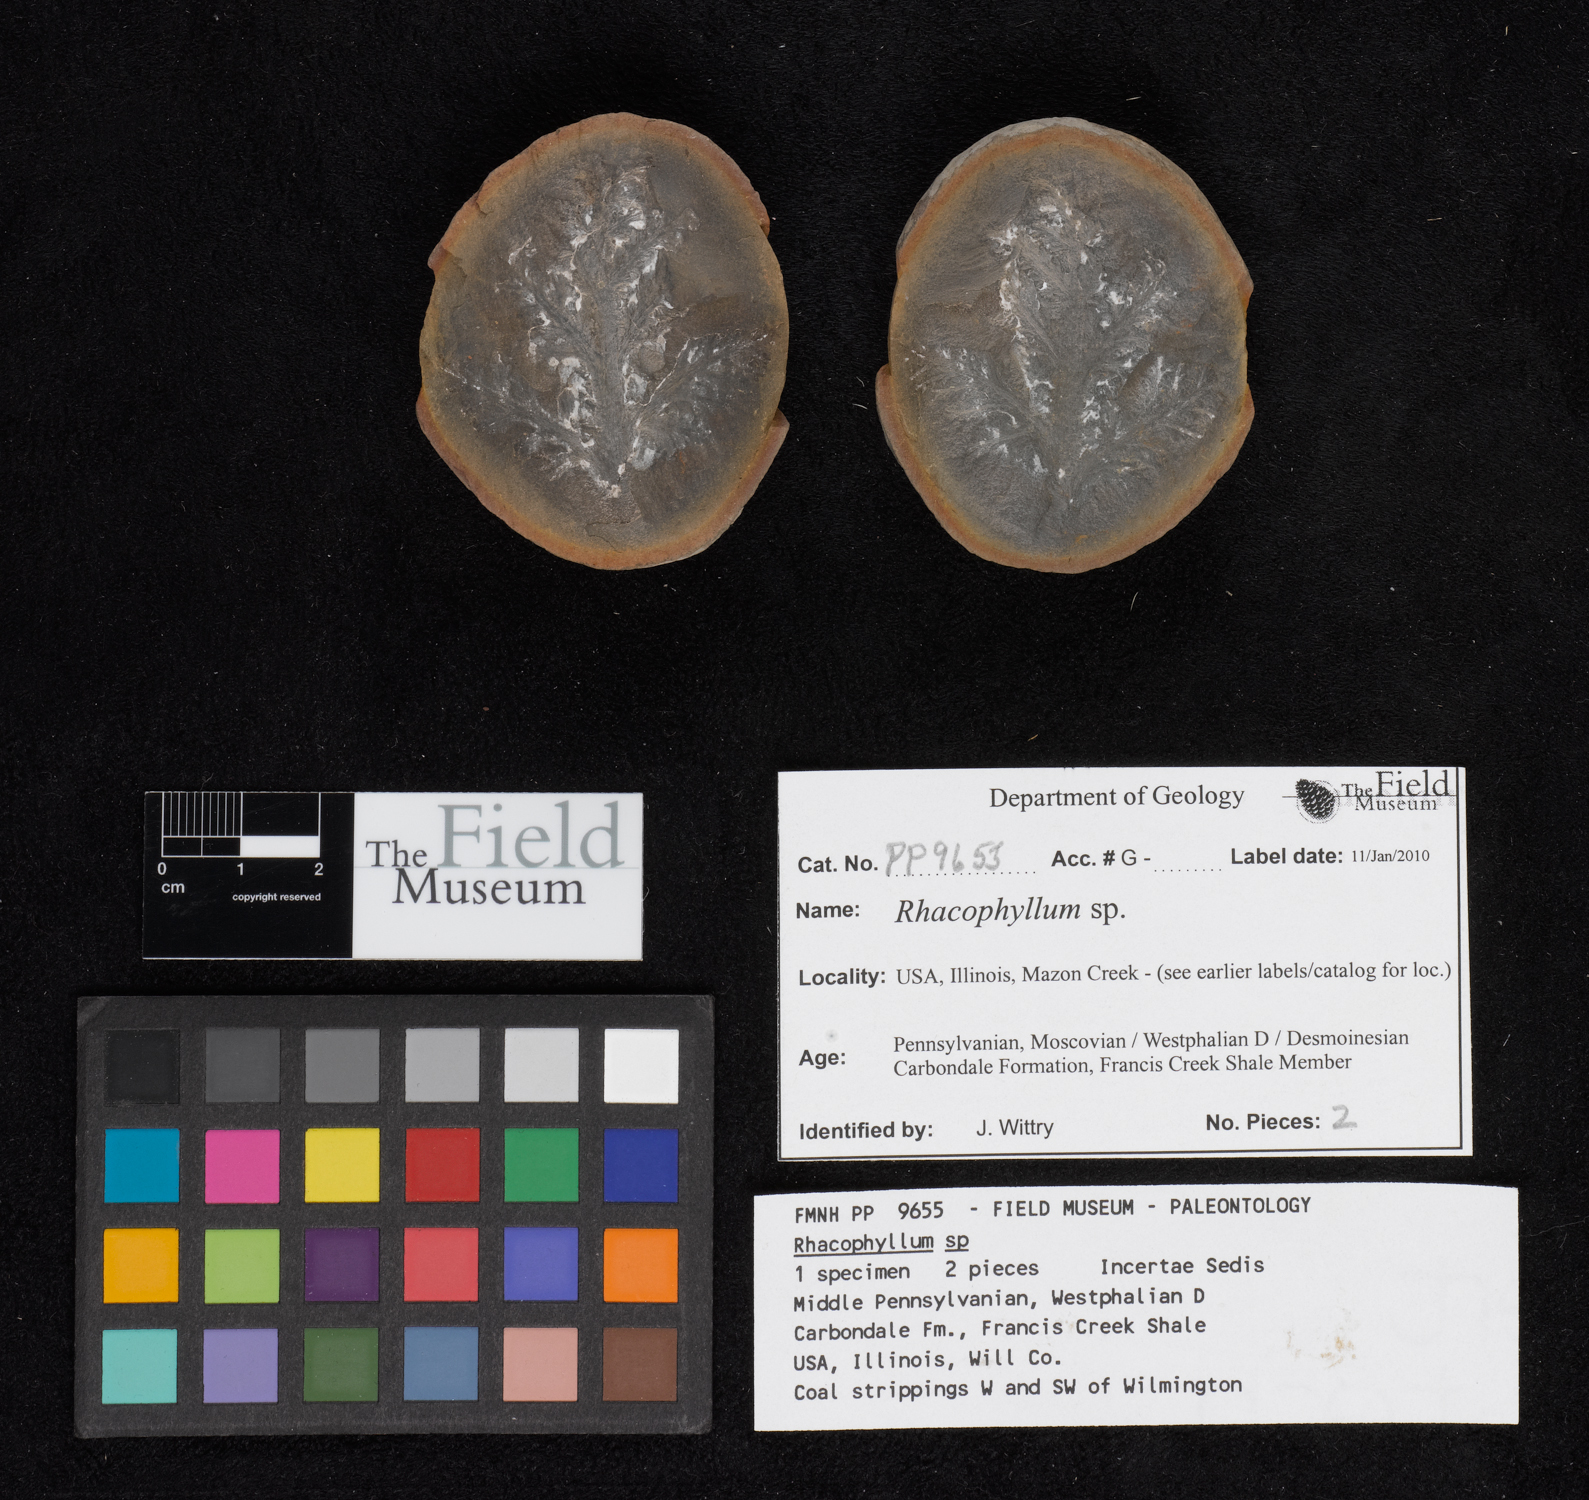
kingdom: Plantae
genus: Rhacophyllum
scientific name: Rhacophyllum
